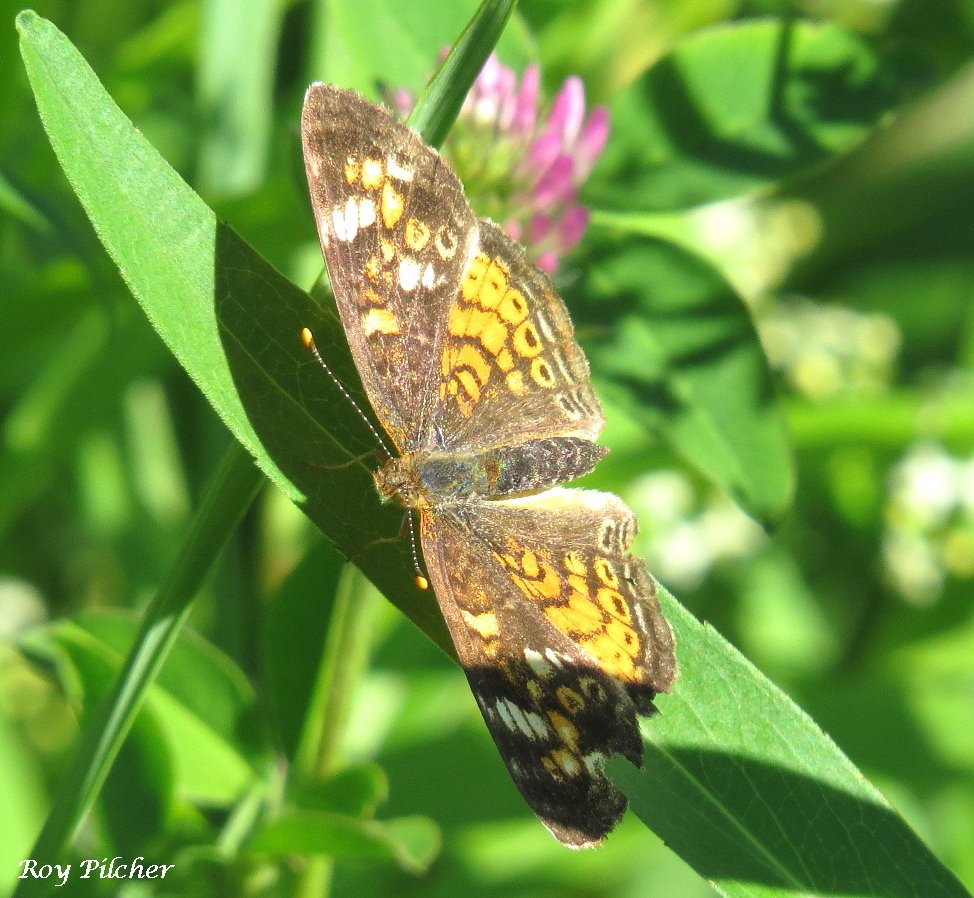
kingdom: Animalia
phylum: Arthropoda
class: Insecta
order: Lepidoptera
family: Nymphalidae
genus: Phyciodes
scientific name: Phyciodes tharos
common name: Pearl Crescent
